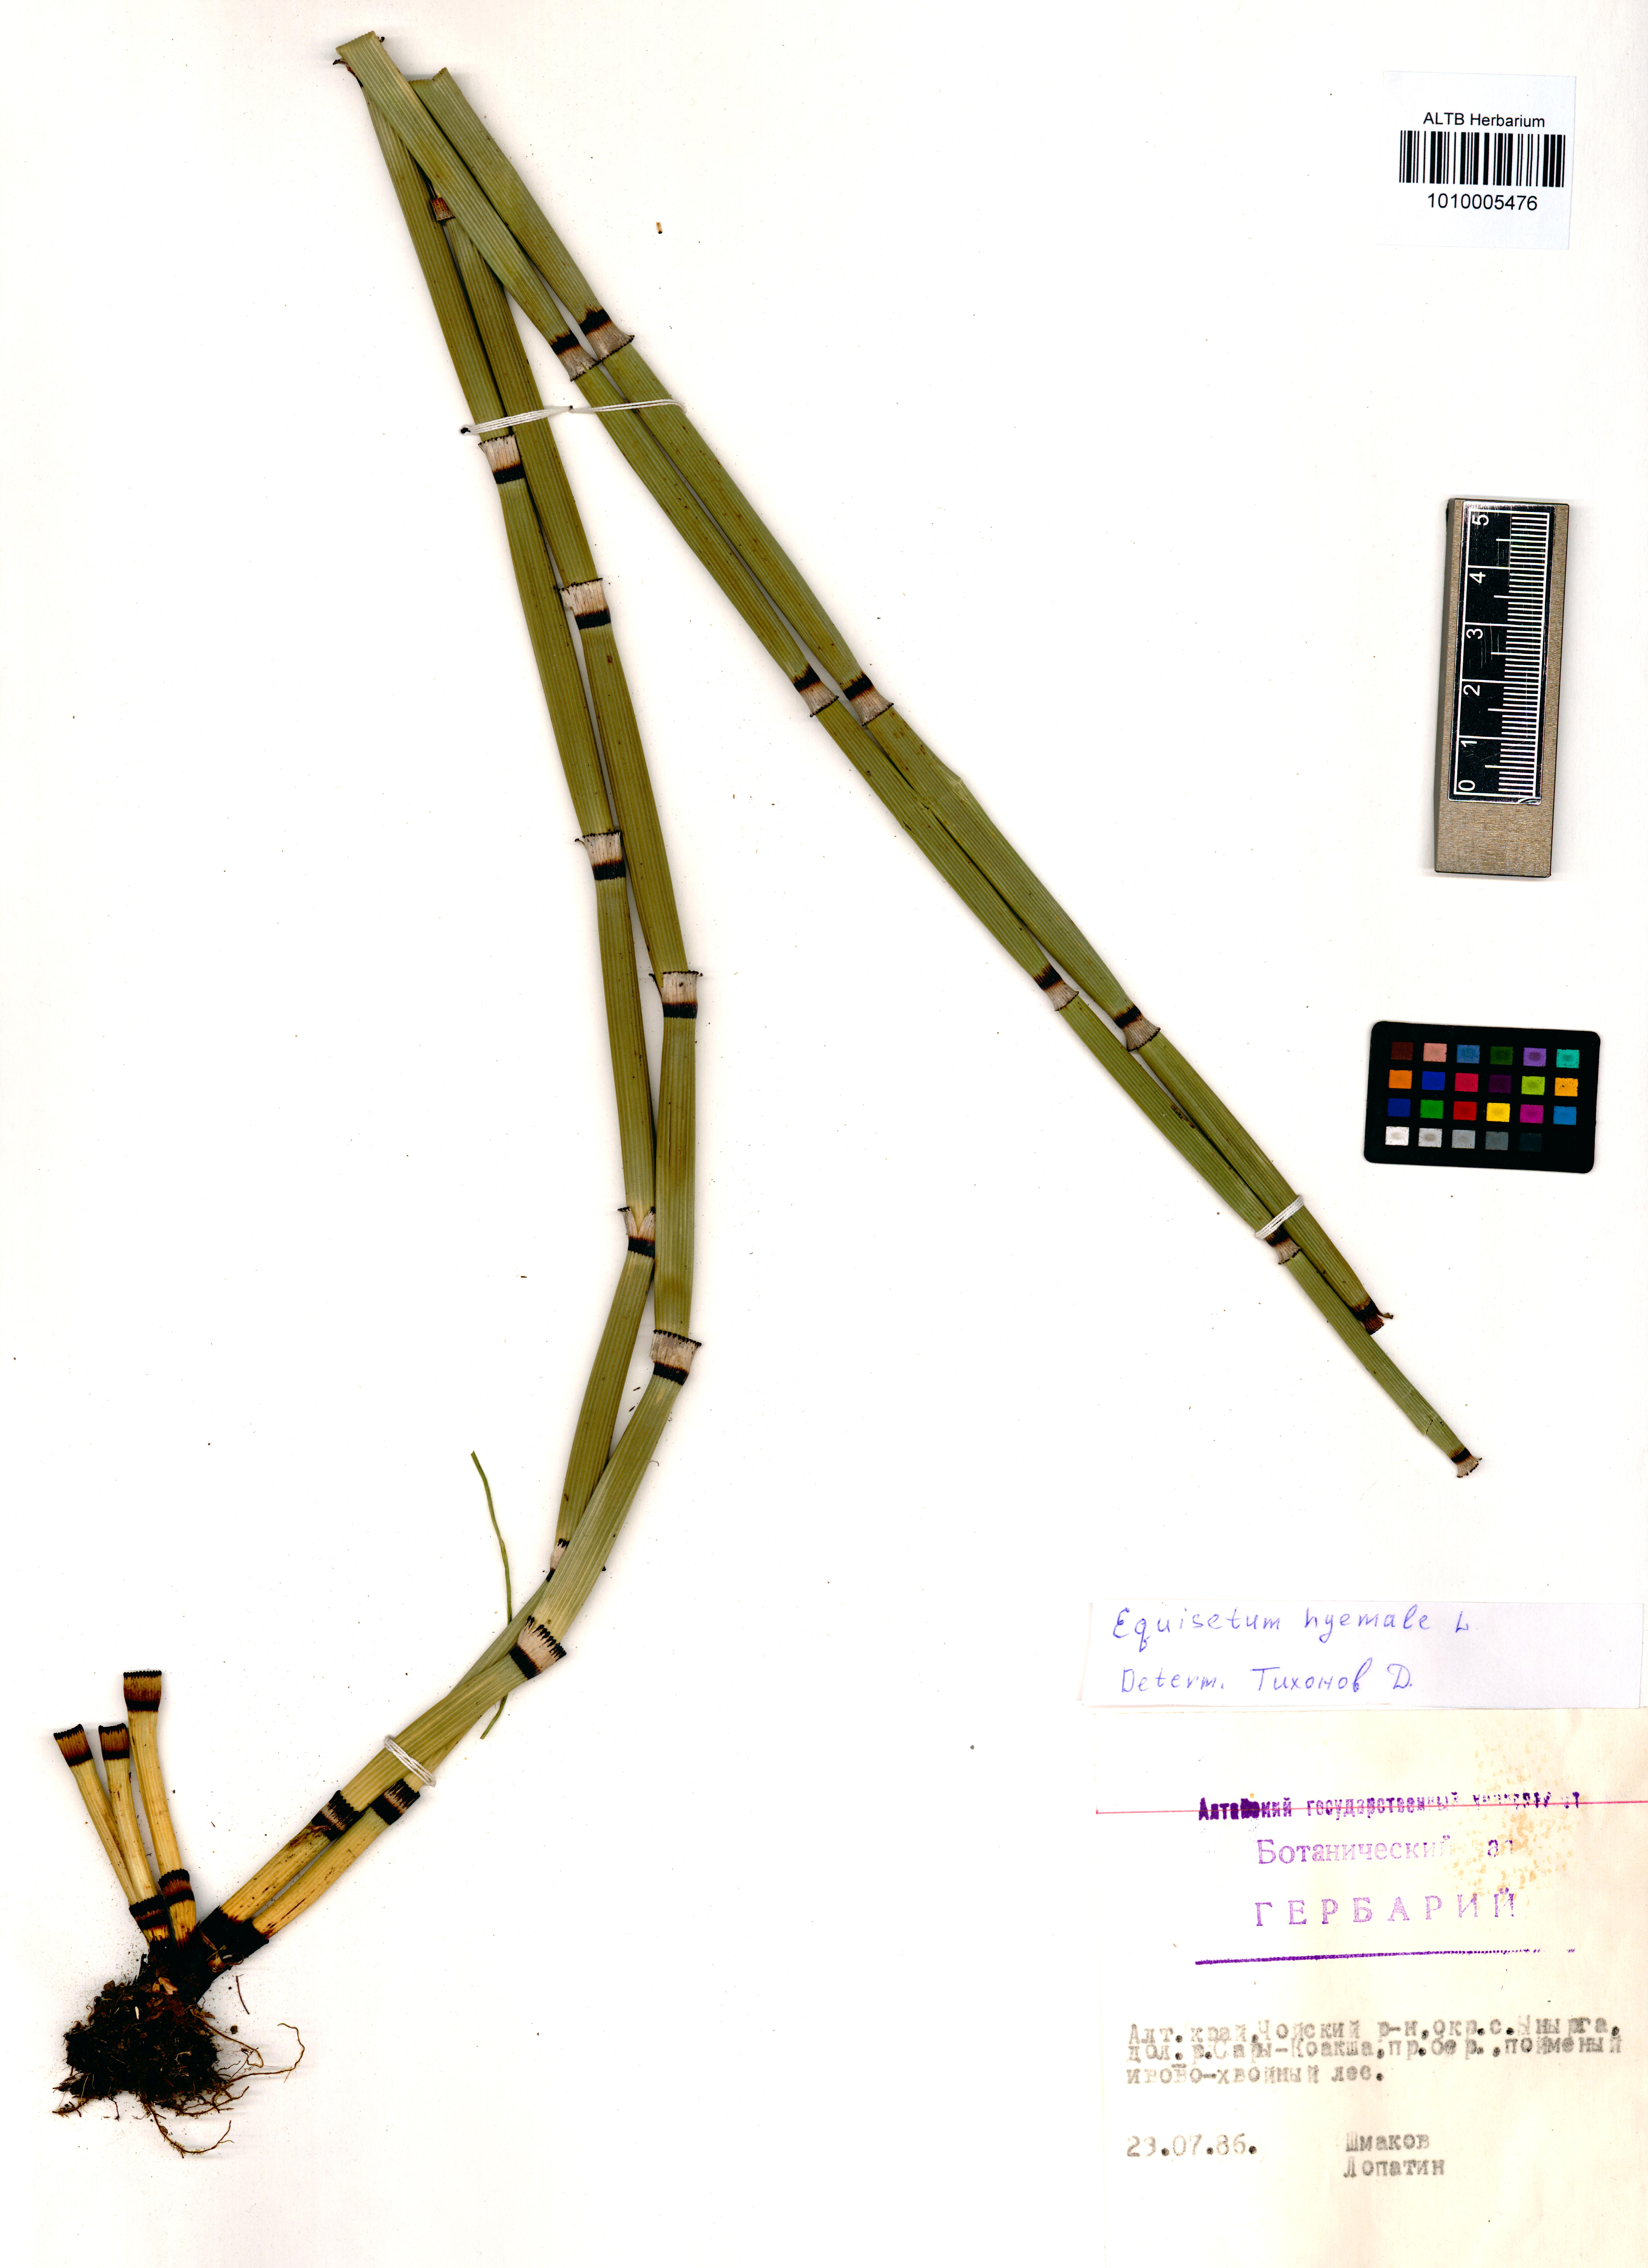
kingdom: Plantae
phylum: Tracheophyta
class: Polypodiopsida
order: Equisetales
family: Equisetaceae
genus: Equisetum
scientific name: Equisetum hyemale
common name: Rough horsetail
